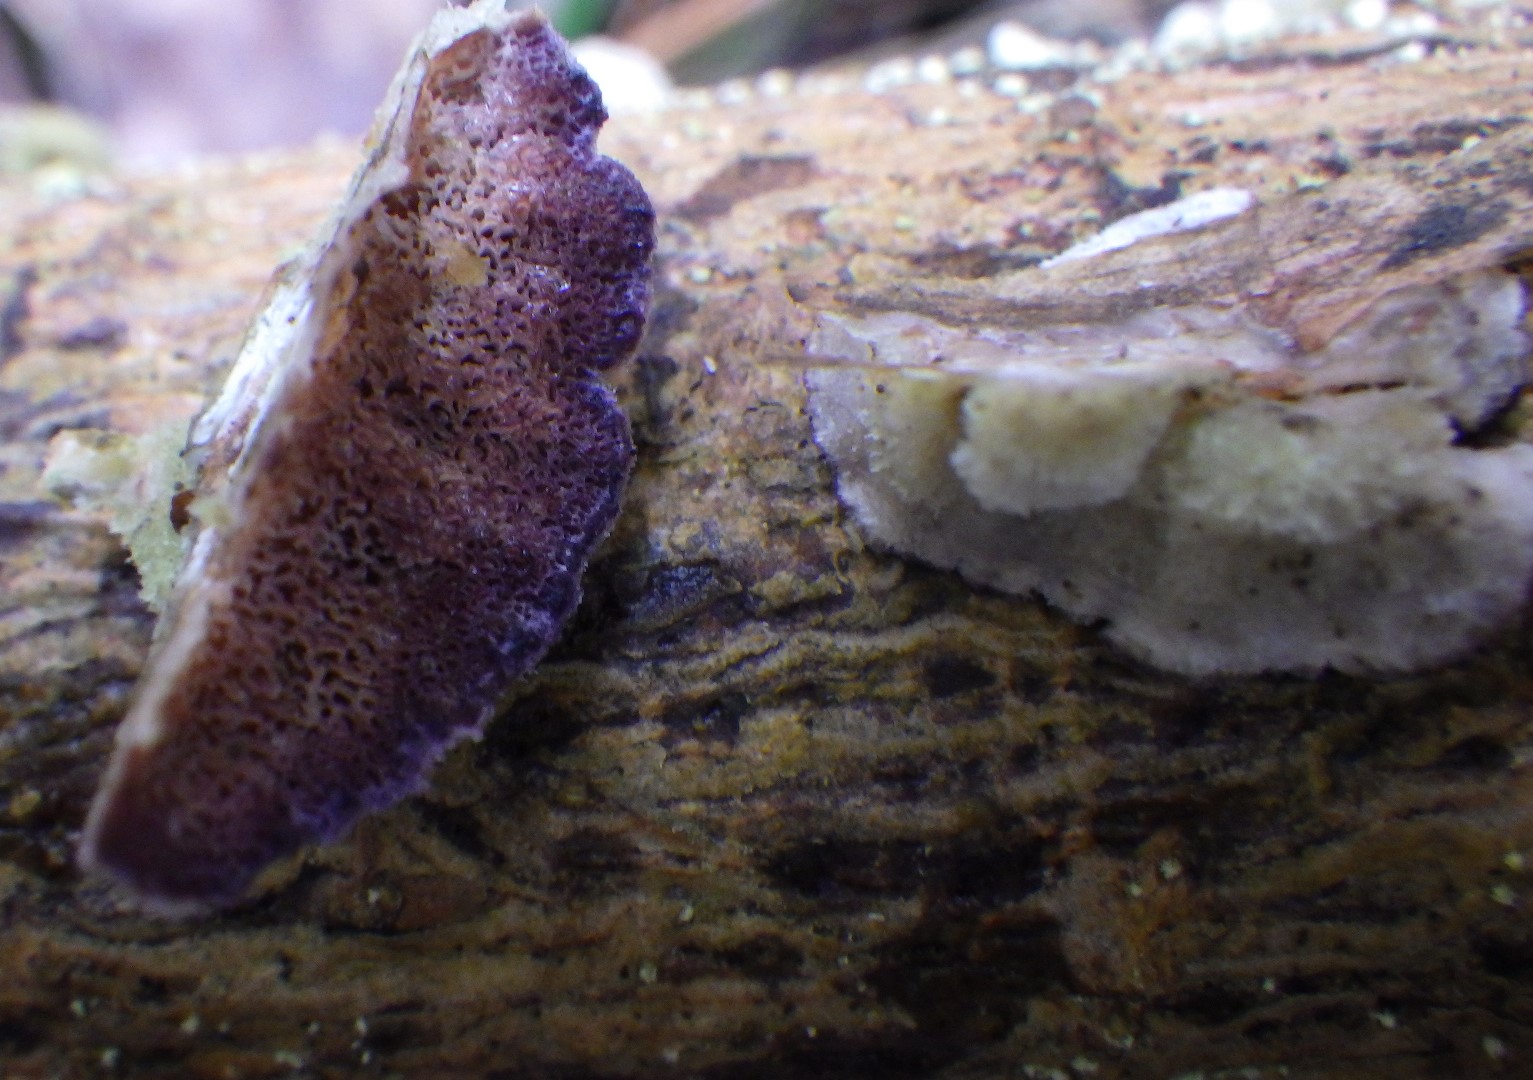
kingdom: Fungi
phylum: Basidiomycota
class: Agaricomycetes
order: Polyporales
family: Polyporaceae
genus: Trichaptum
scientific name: Trichaptum
